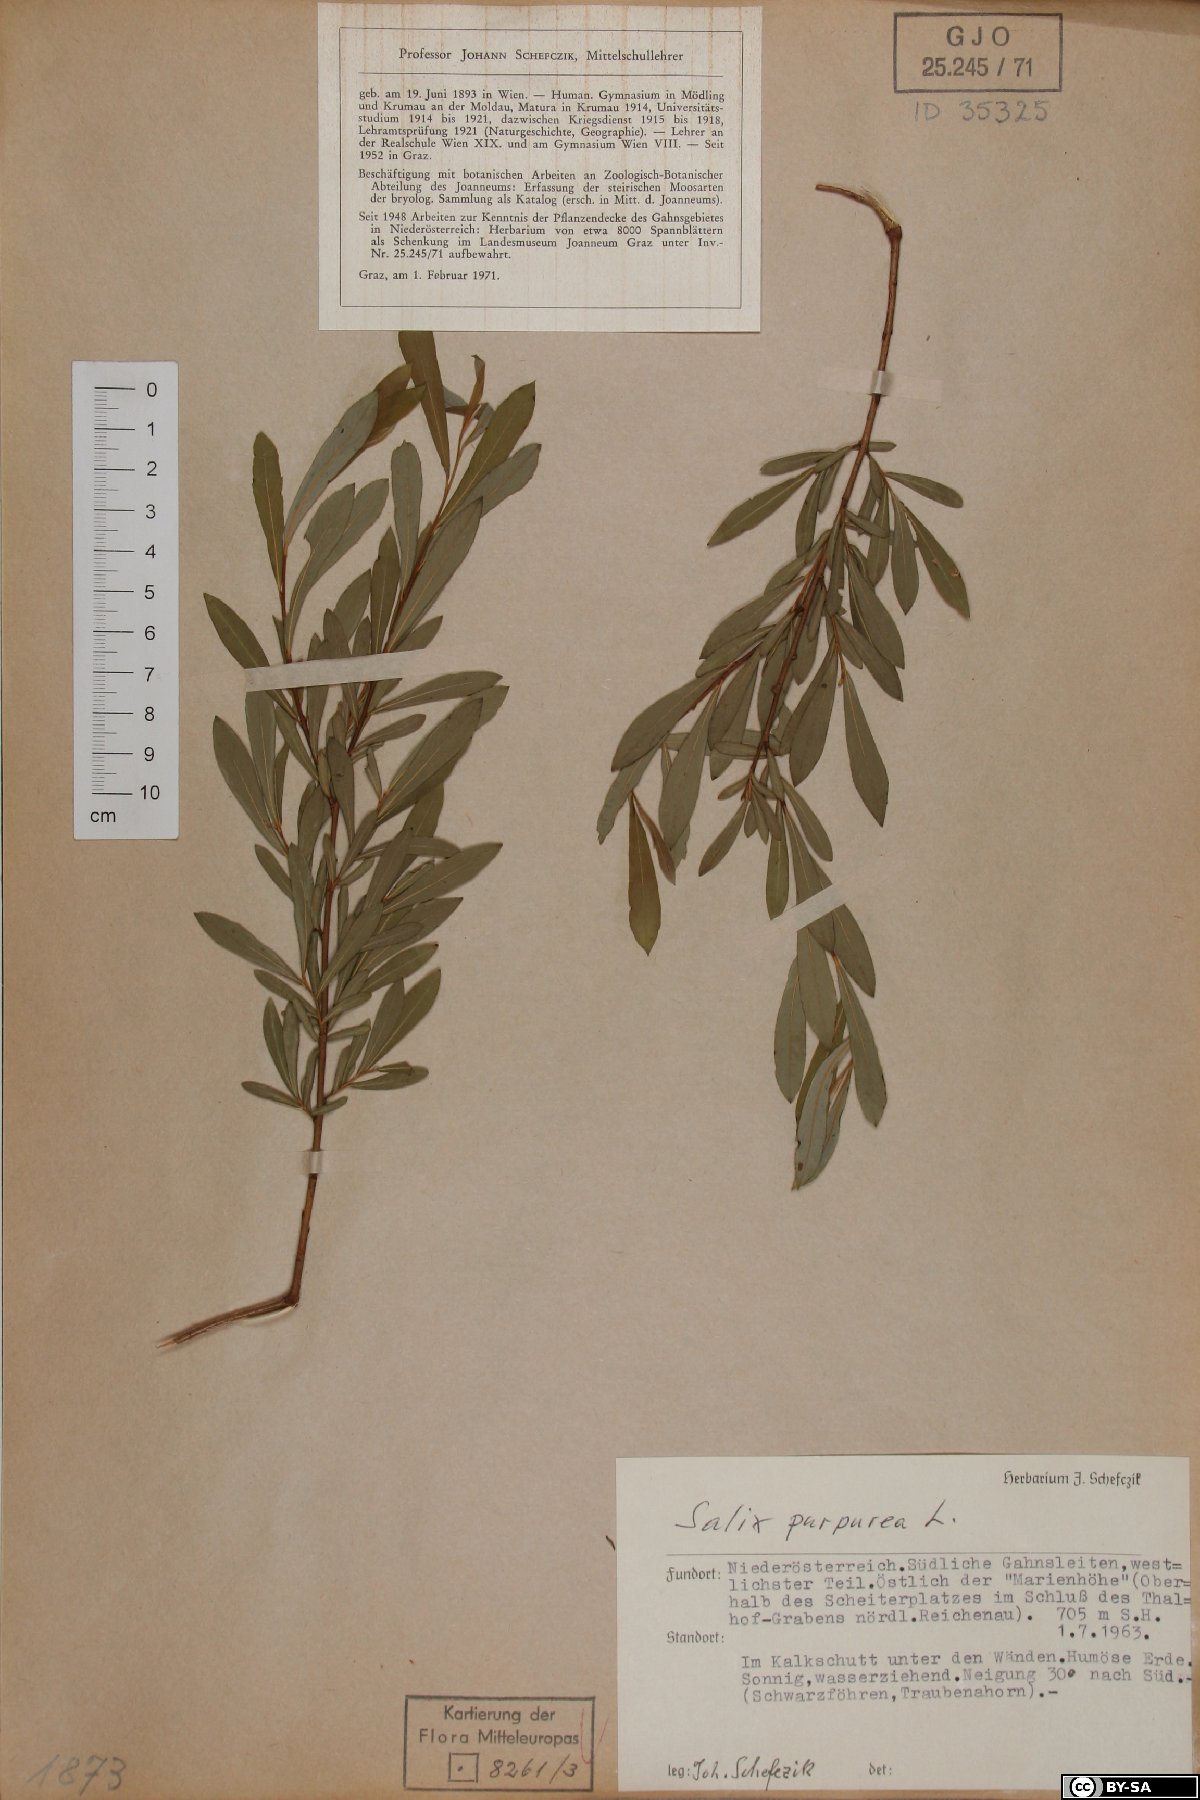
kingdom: Plantae
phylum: Tracheophyta
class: Magnoliopsida
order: Malpighiales
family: Salicaceae
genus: Salix
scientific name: Salix purpurea
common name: Purple willow
